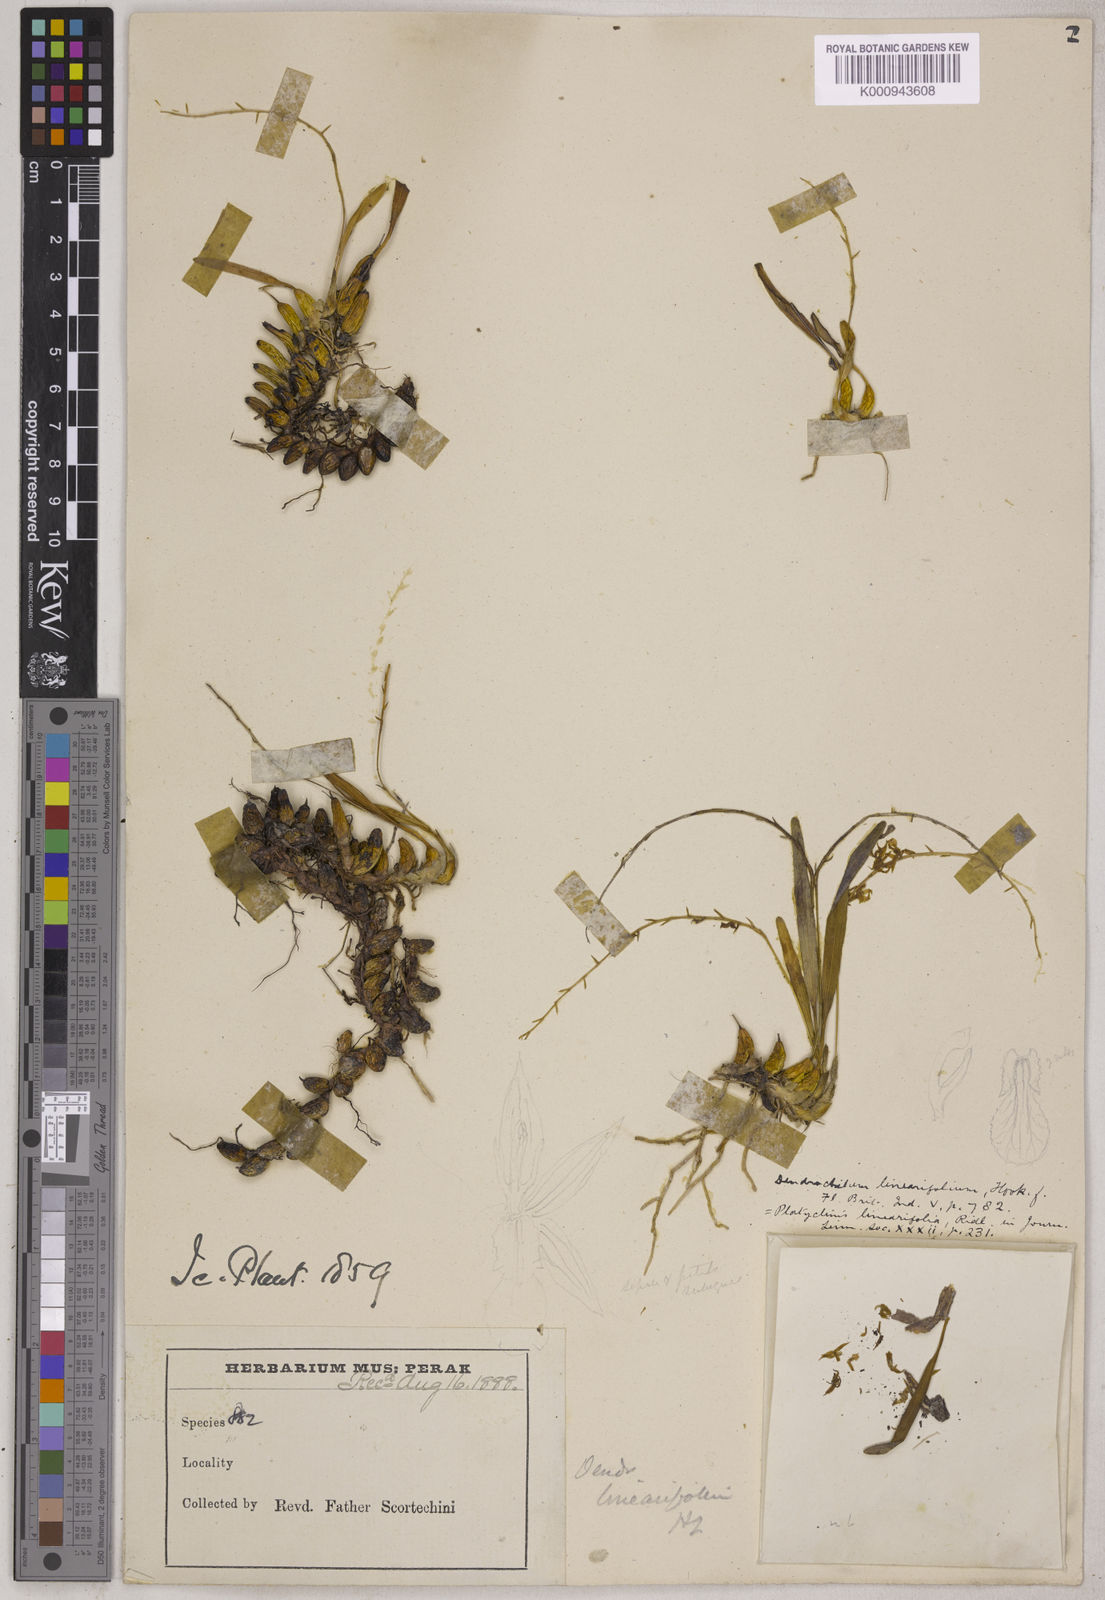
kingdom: Plantae
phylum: Tracheophyta
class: Liliopsida
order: Asparagales
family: Orchidaceae
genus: Coelogyne
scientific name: Coelogyne linearifolia
